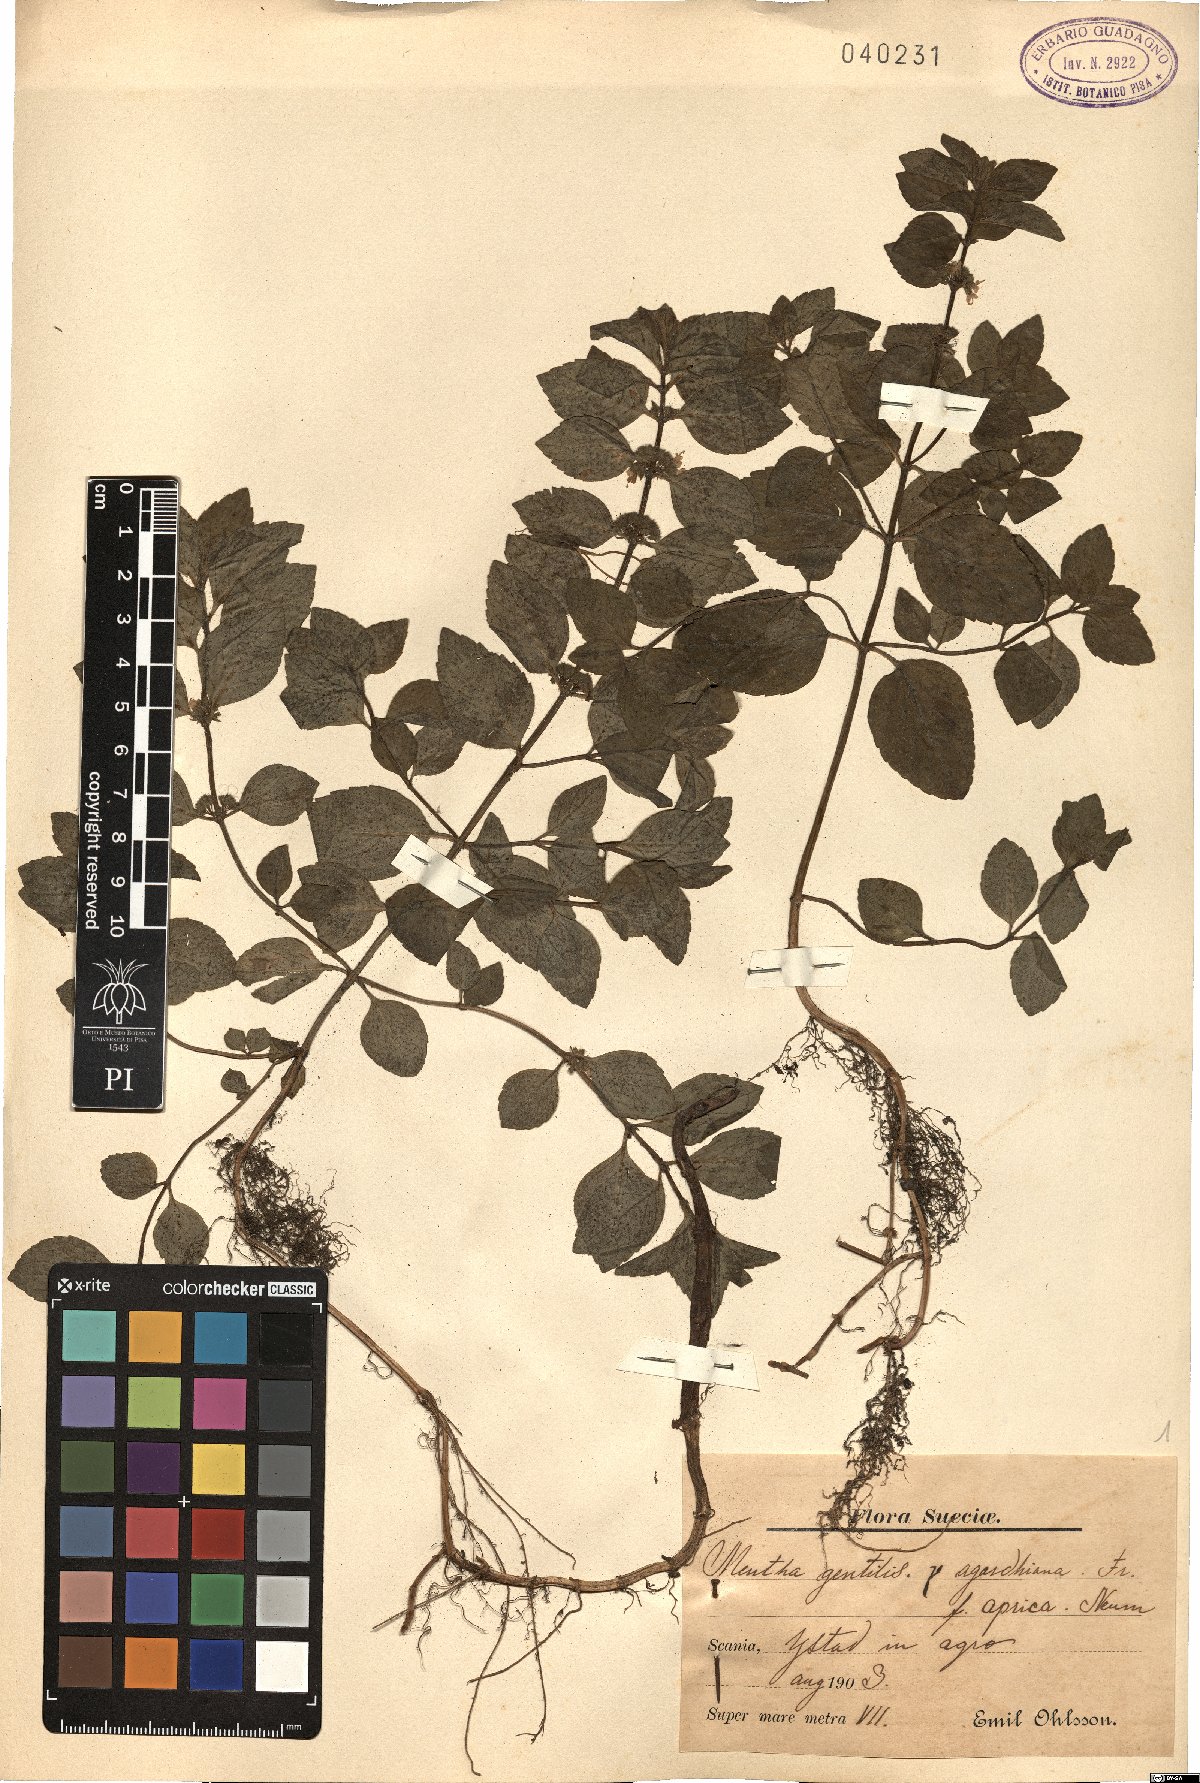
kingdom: Plantae
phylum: Tracheophyta
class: Magnoliopsida
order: Lamiales
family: Lamiaceae
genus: Mentha
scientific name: Mentha gracilis
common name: Bushy mint
